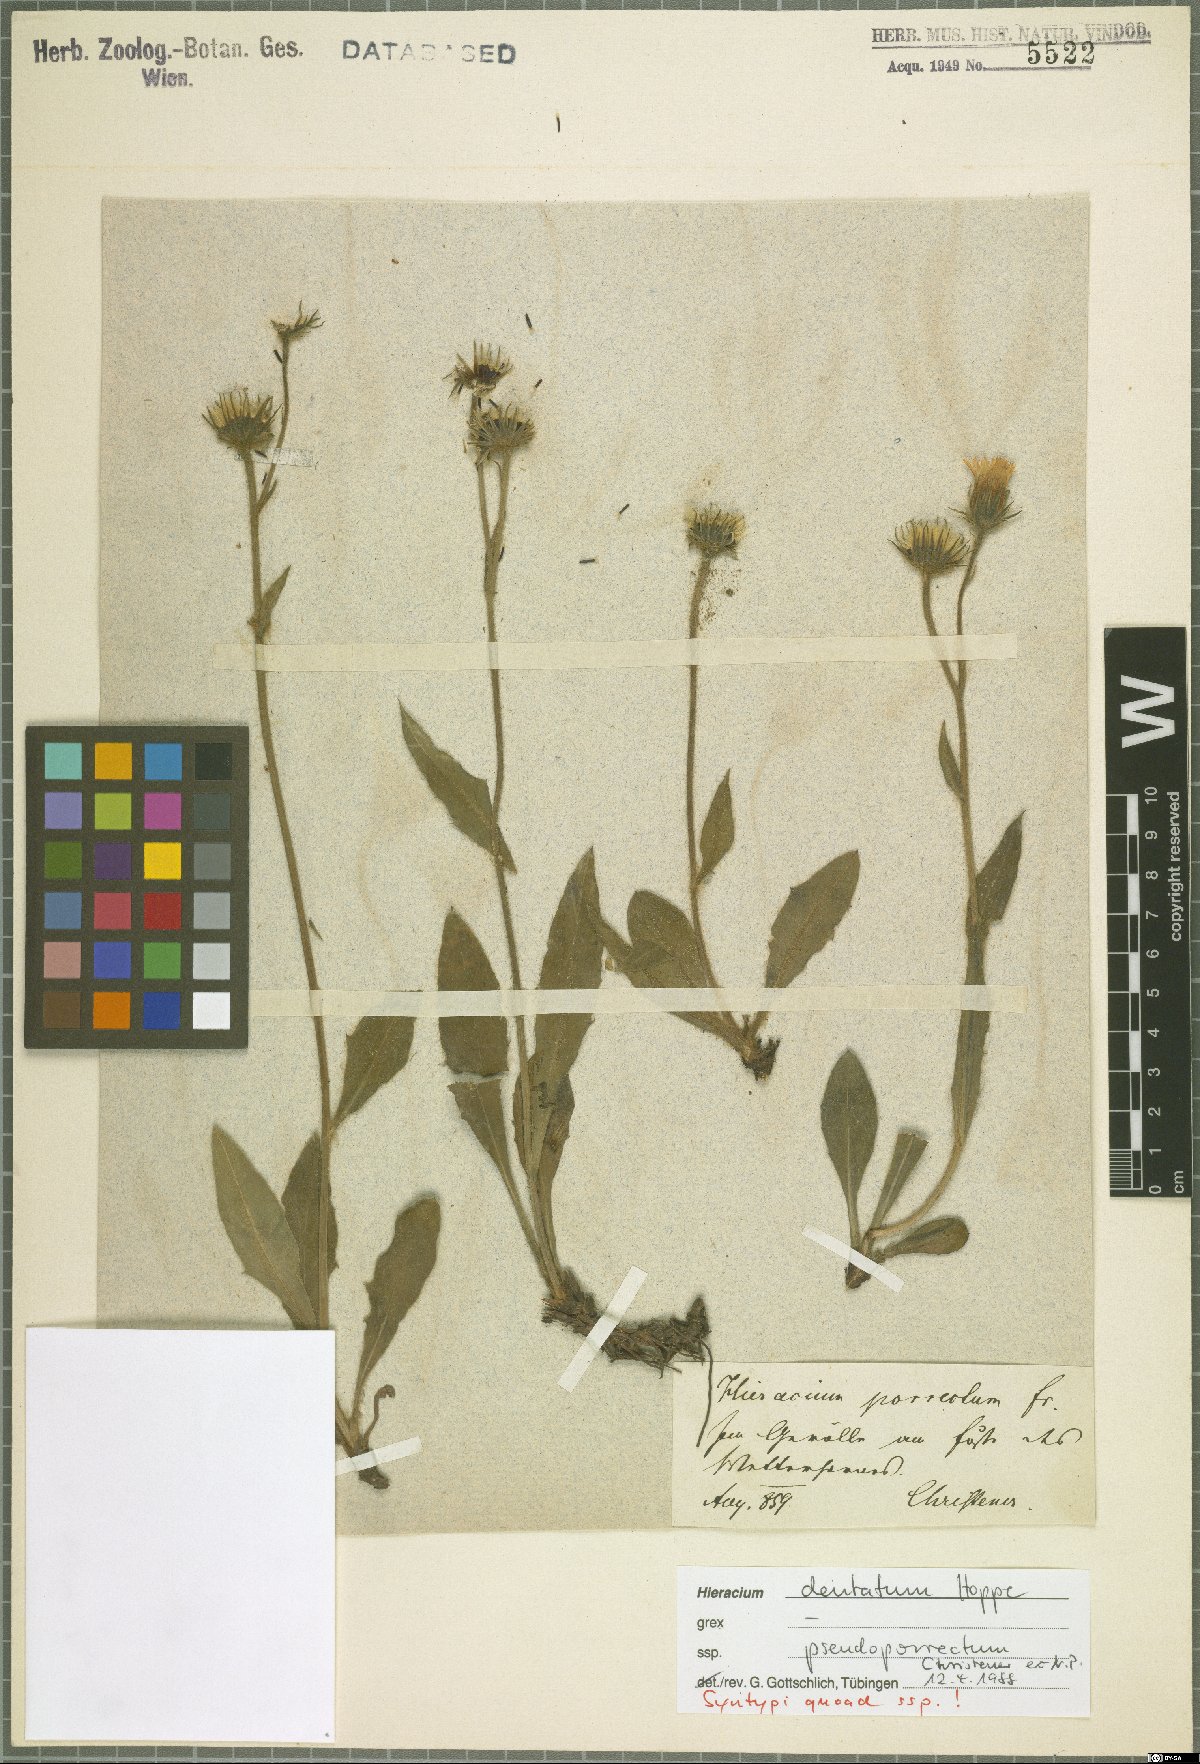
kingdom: Plantae
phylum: Tracheophyta
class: Magnoliopsida
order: Asterales
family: Asteraceae
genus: Hieracium
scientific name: Hieracium dentatum
